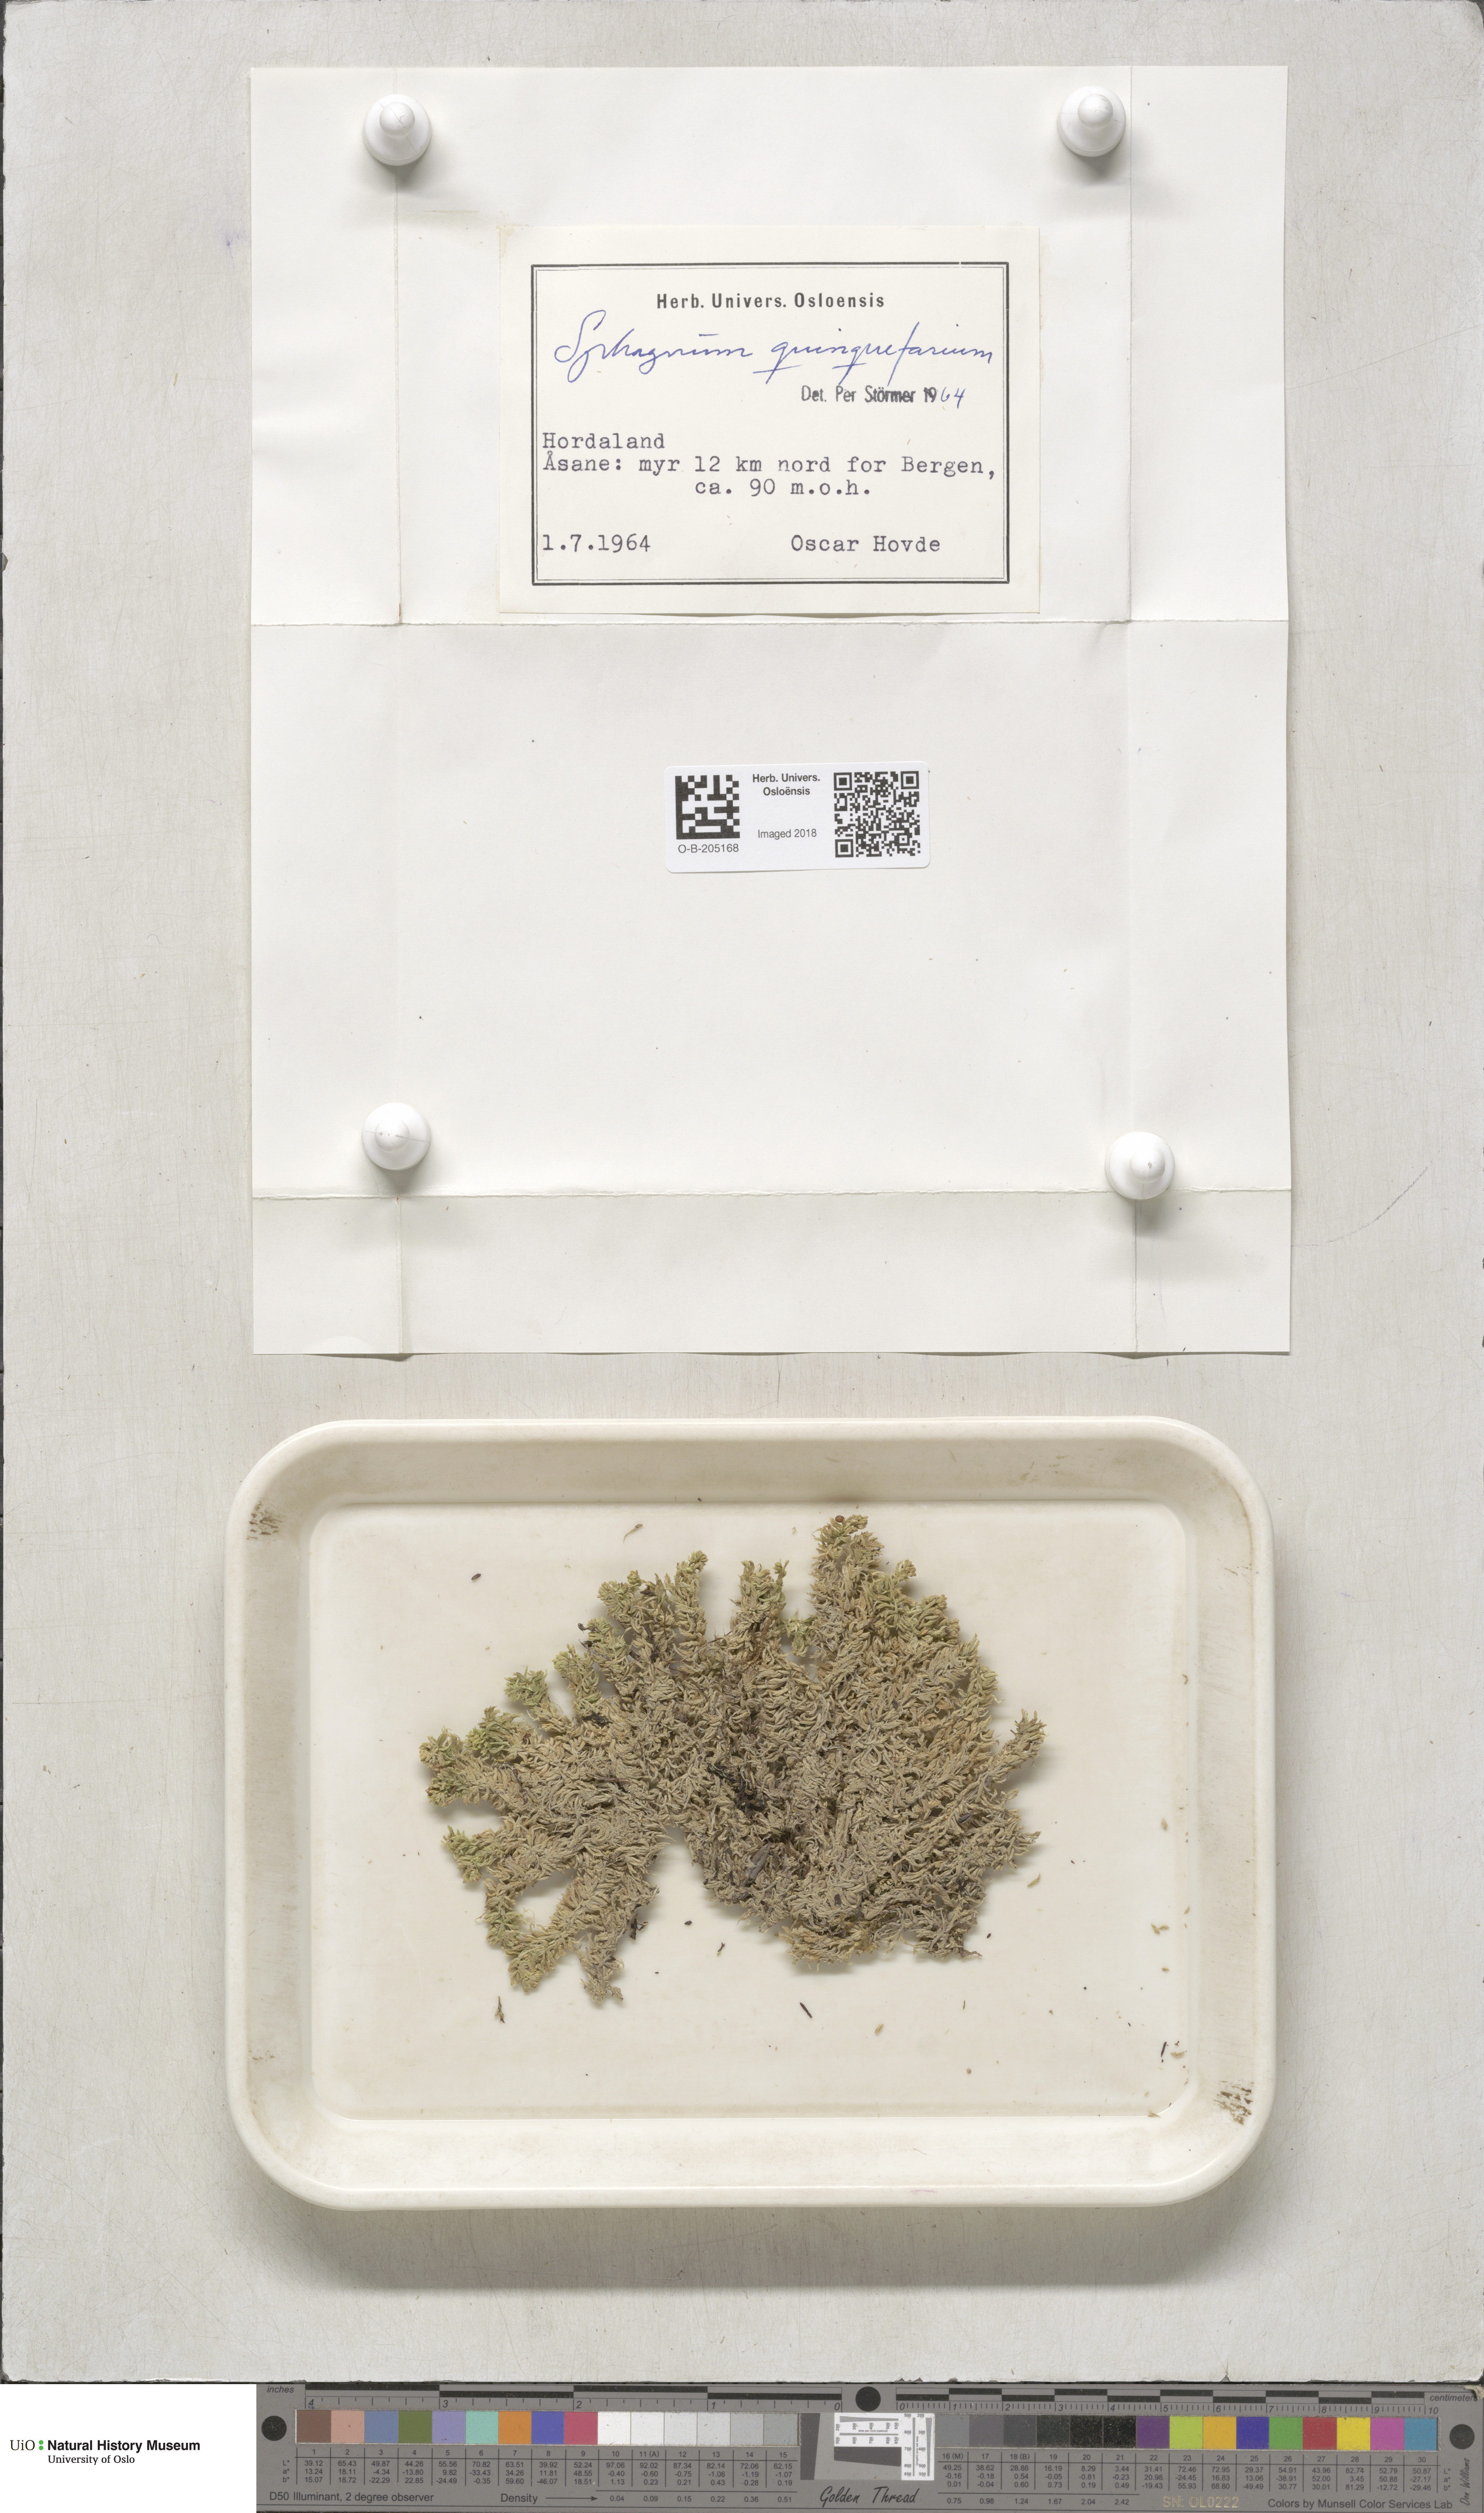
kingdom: Plantae
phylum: Bryophyta
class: Sphagnopsida
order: Sphagnales
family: Sphagnaceae
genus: Sphagnum
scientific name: Sphagnum quinquefarium
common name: Five-ranked peat moss
